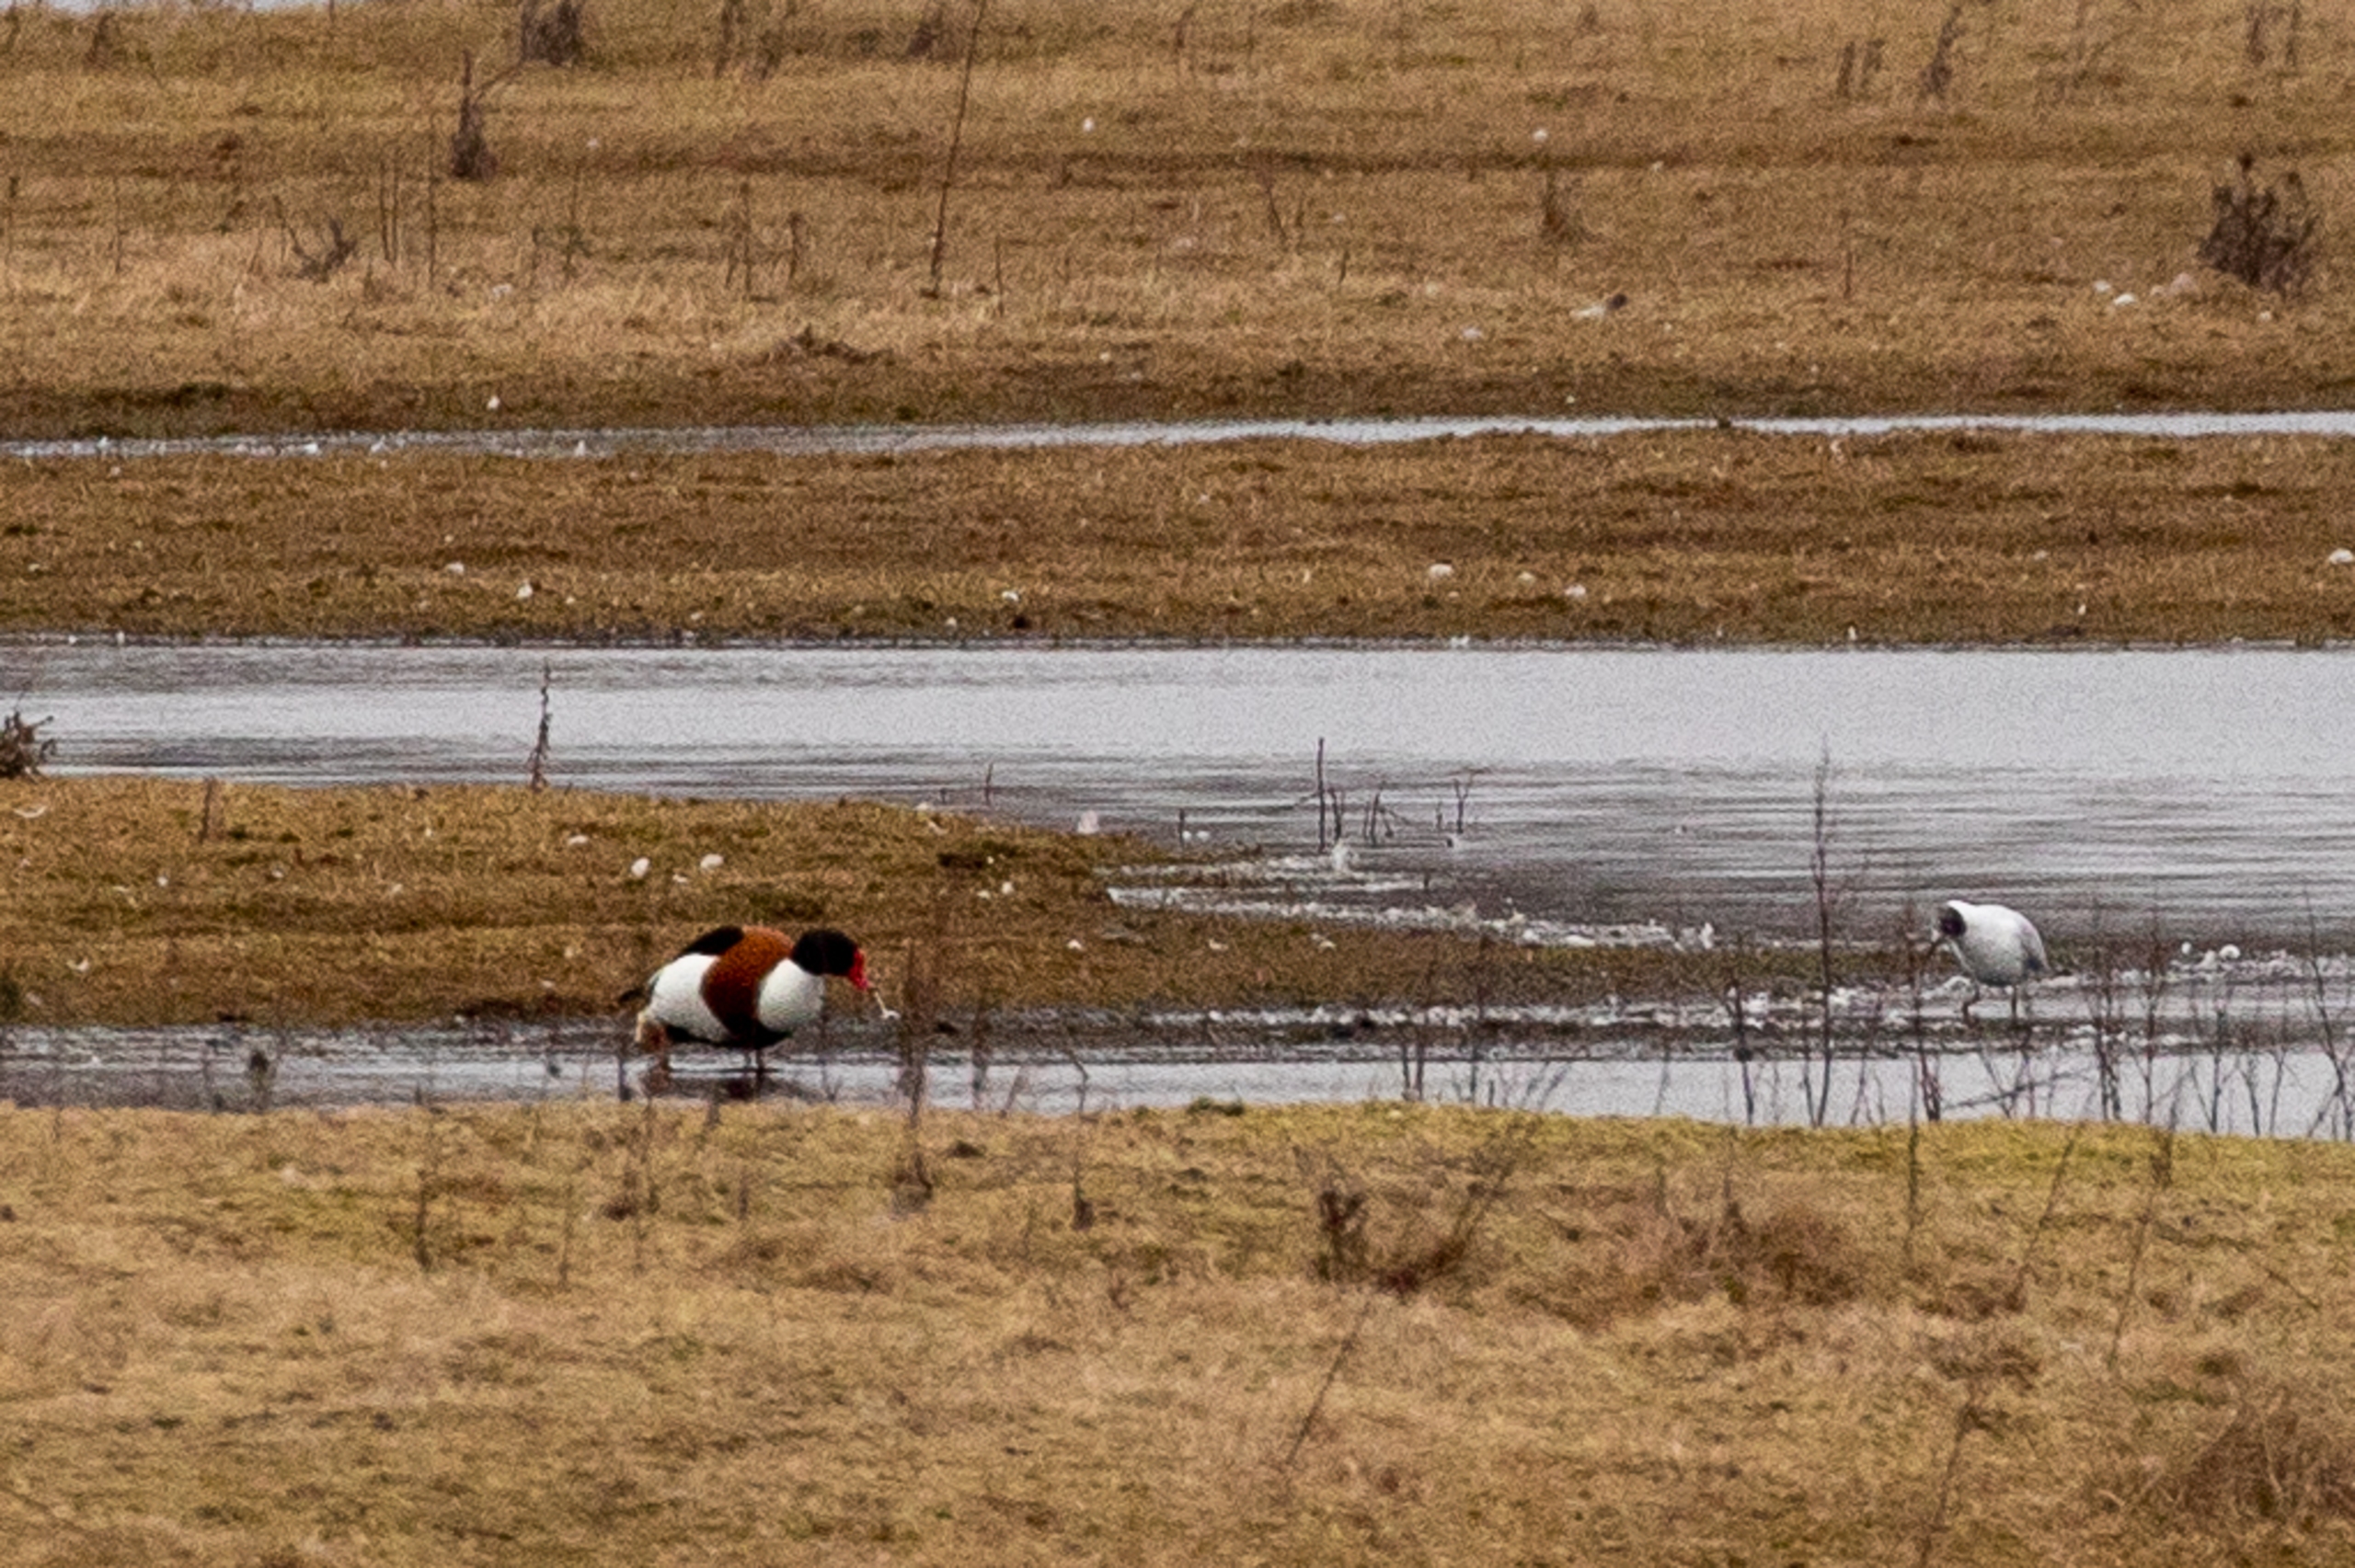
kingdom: Animalia
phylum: Chordata
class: Aves
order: Anseriformes
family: Anatidae
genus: Tadorna
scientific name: Tadorna tadorna
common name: Gravand
